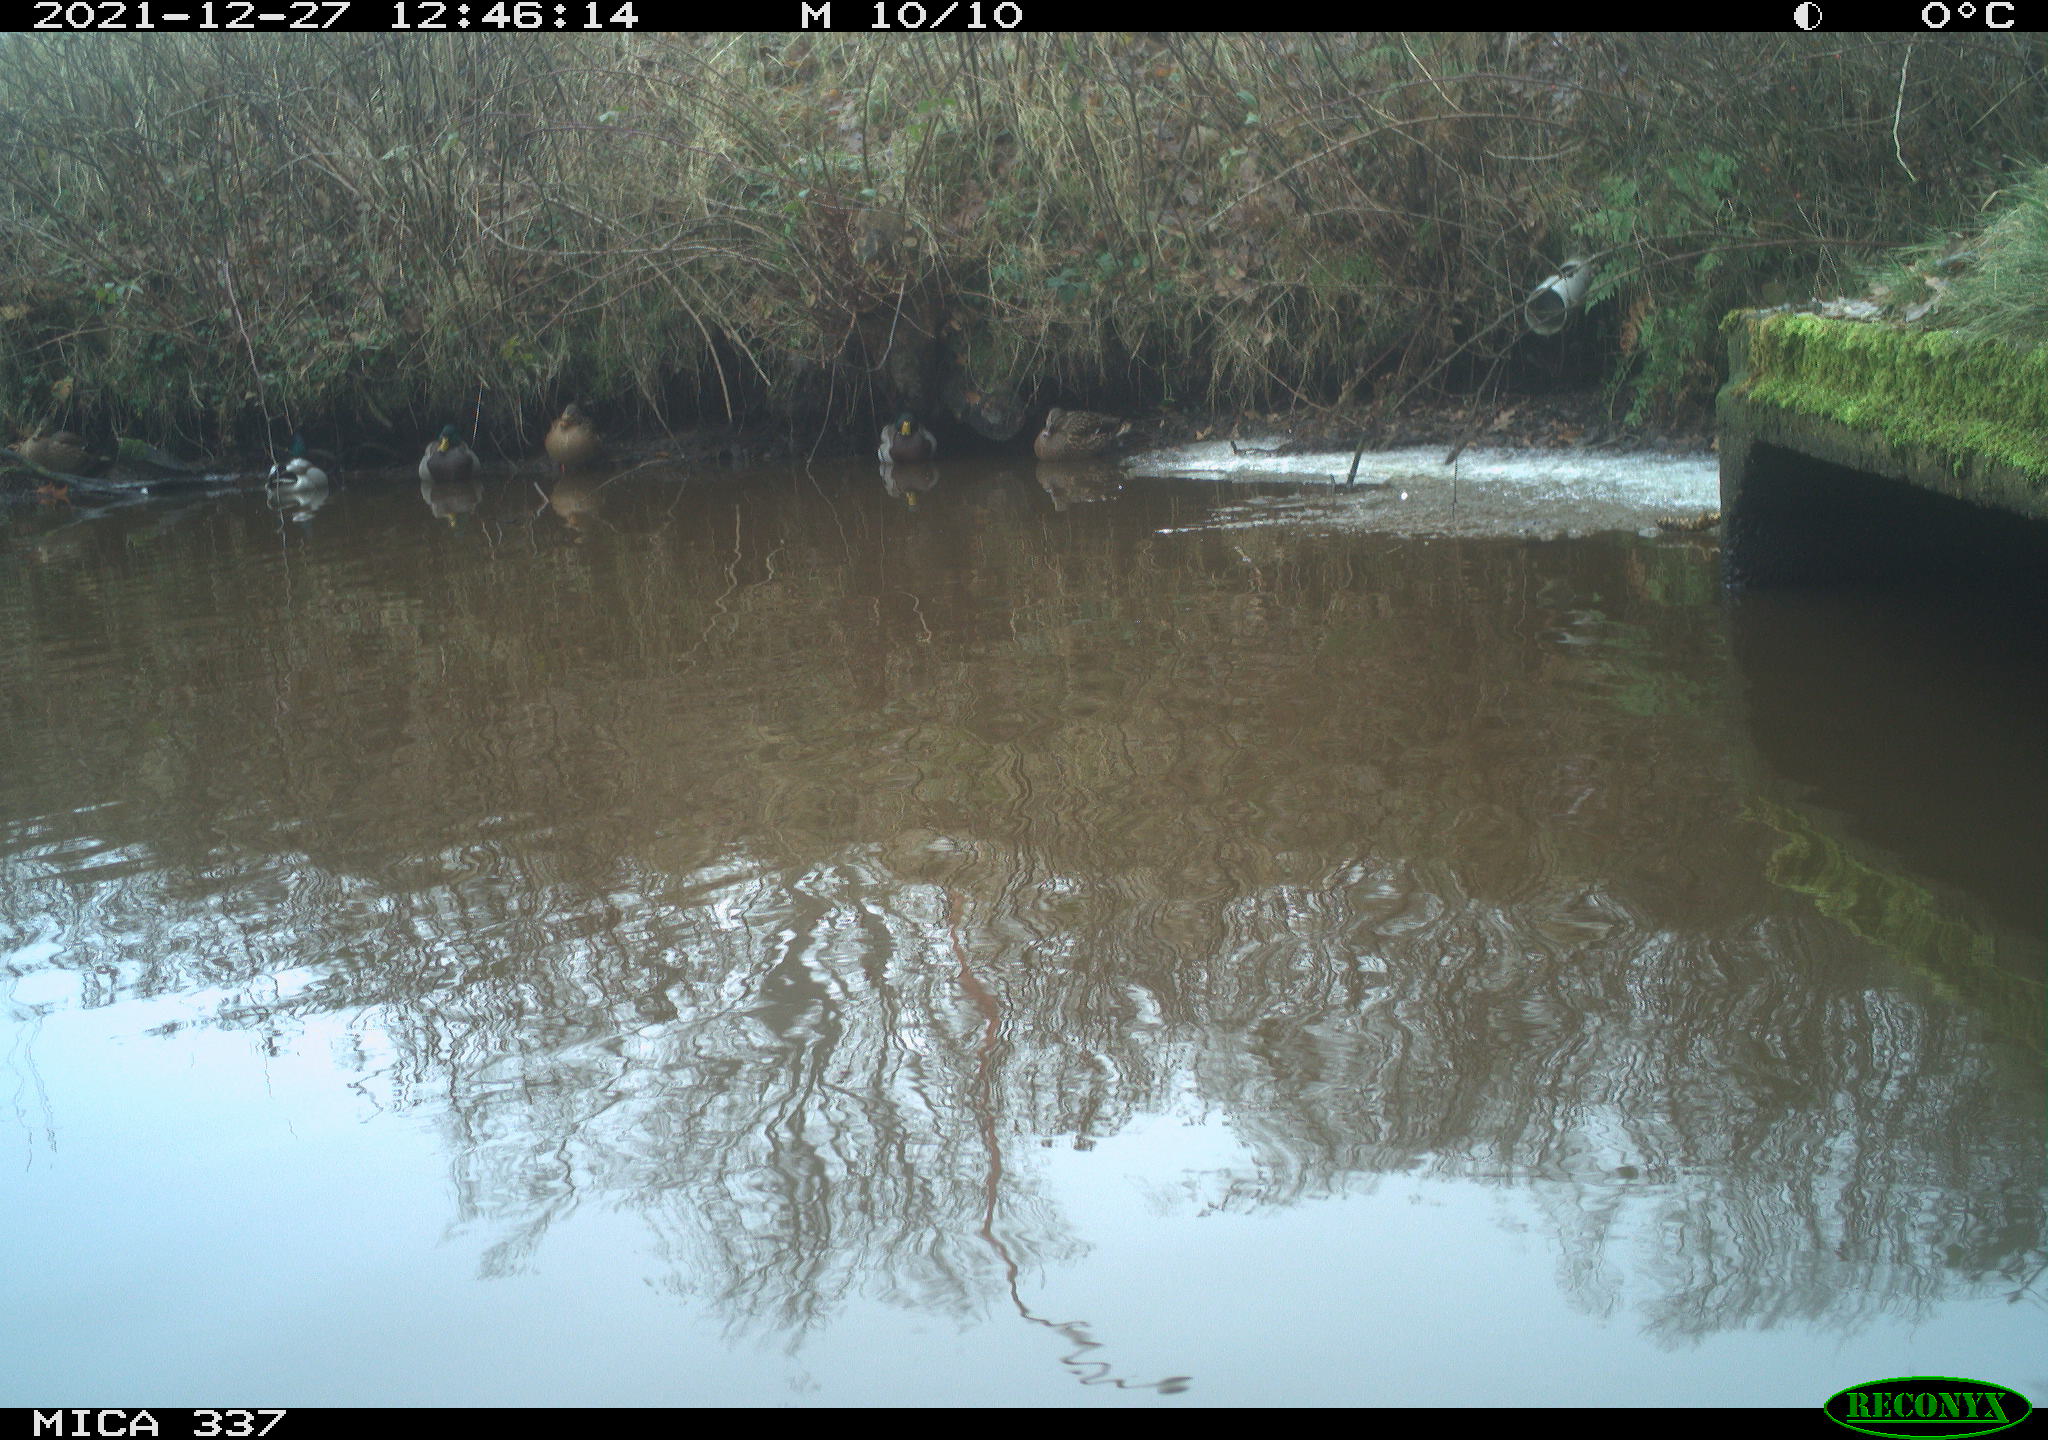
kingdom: Animalia
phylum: Chordata
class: Aves
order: Anseriformes
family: Anatidae
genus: Anas
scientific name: Anas platyrhynchos
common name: Mallard
